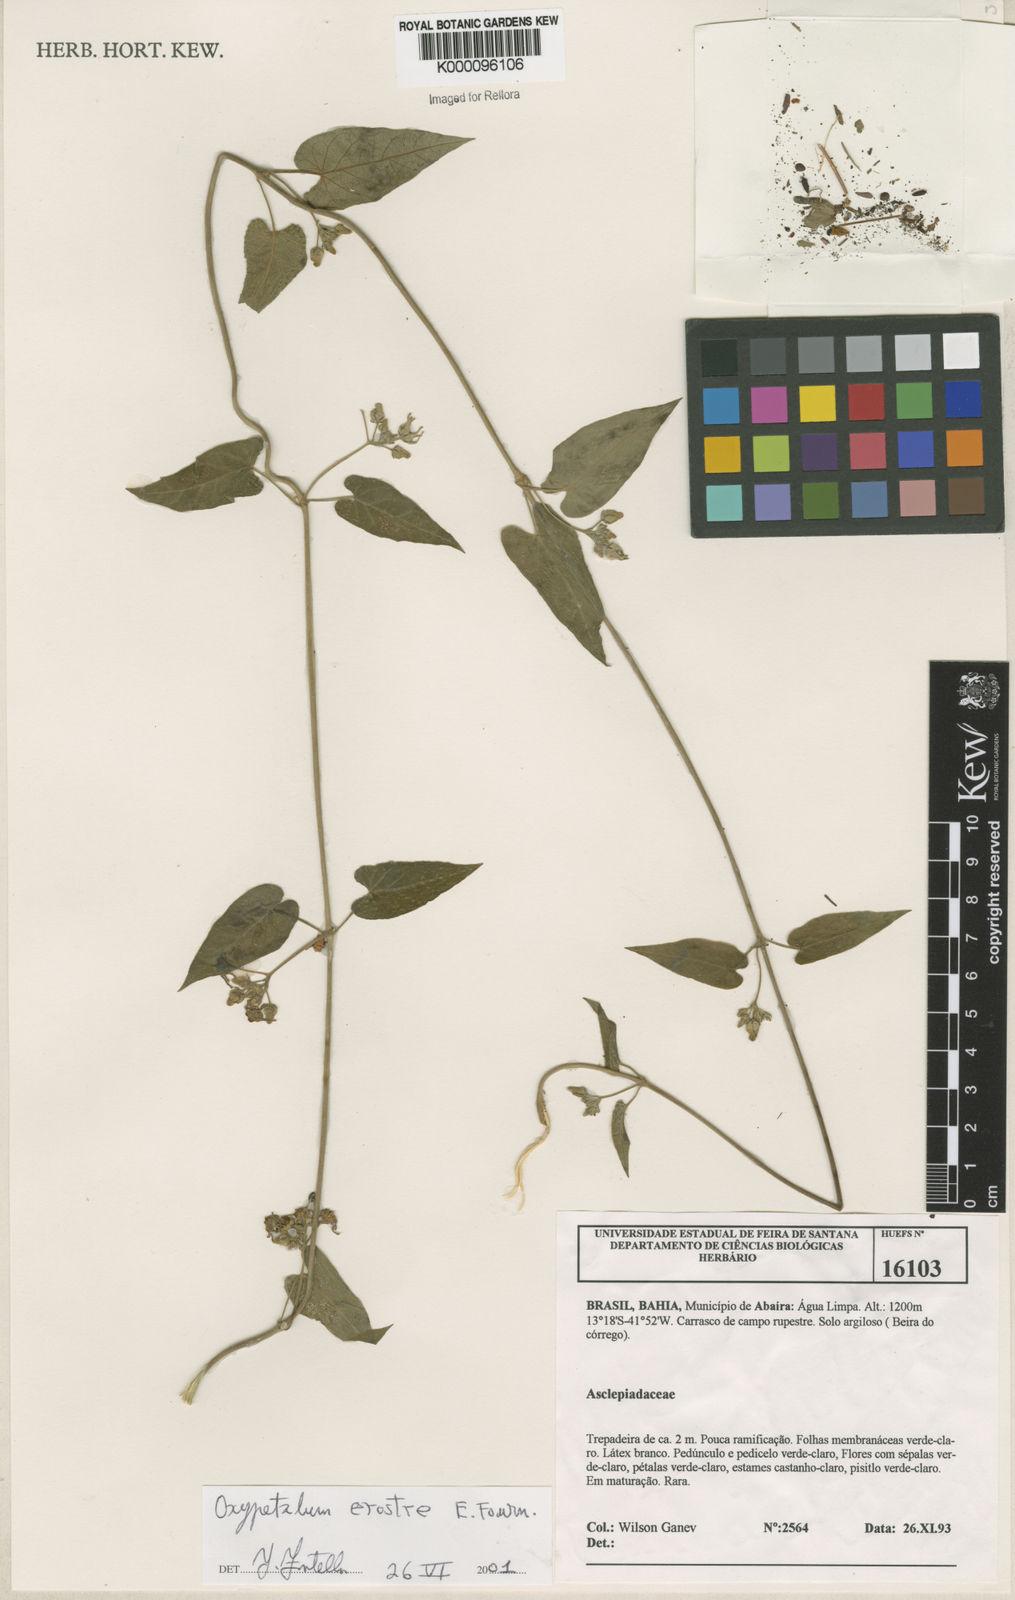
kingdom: Plantae
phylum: Tracheophyta
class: Magnoliopsida
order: Gentianales
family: Apocynaceae
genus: Oxypetalum
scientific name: Oxypetalum erostre
